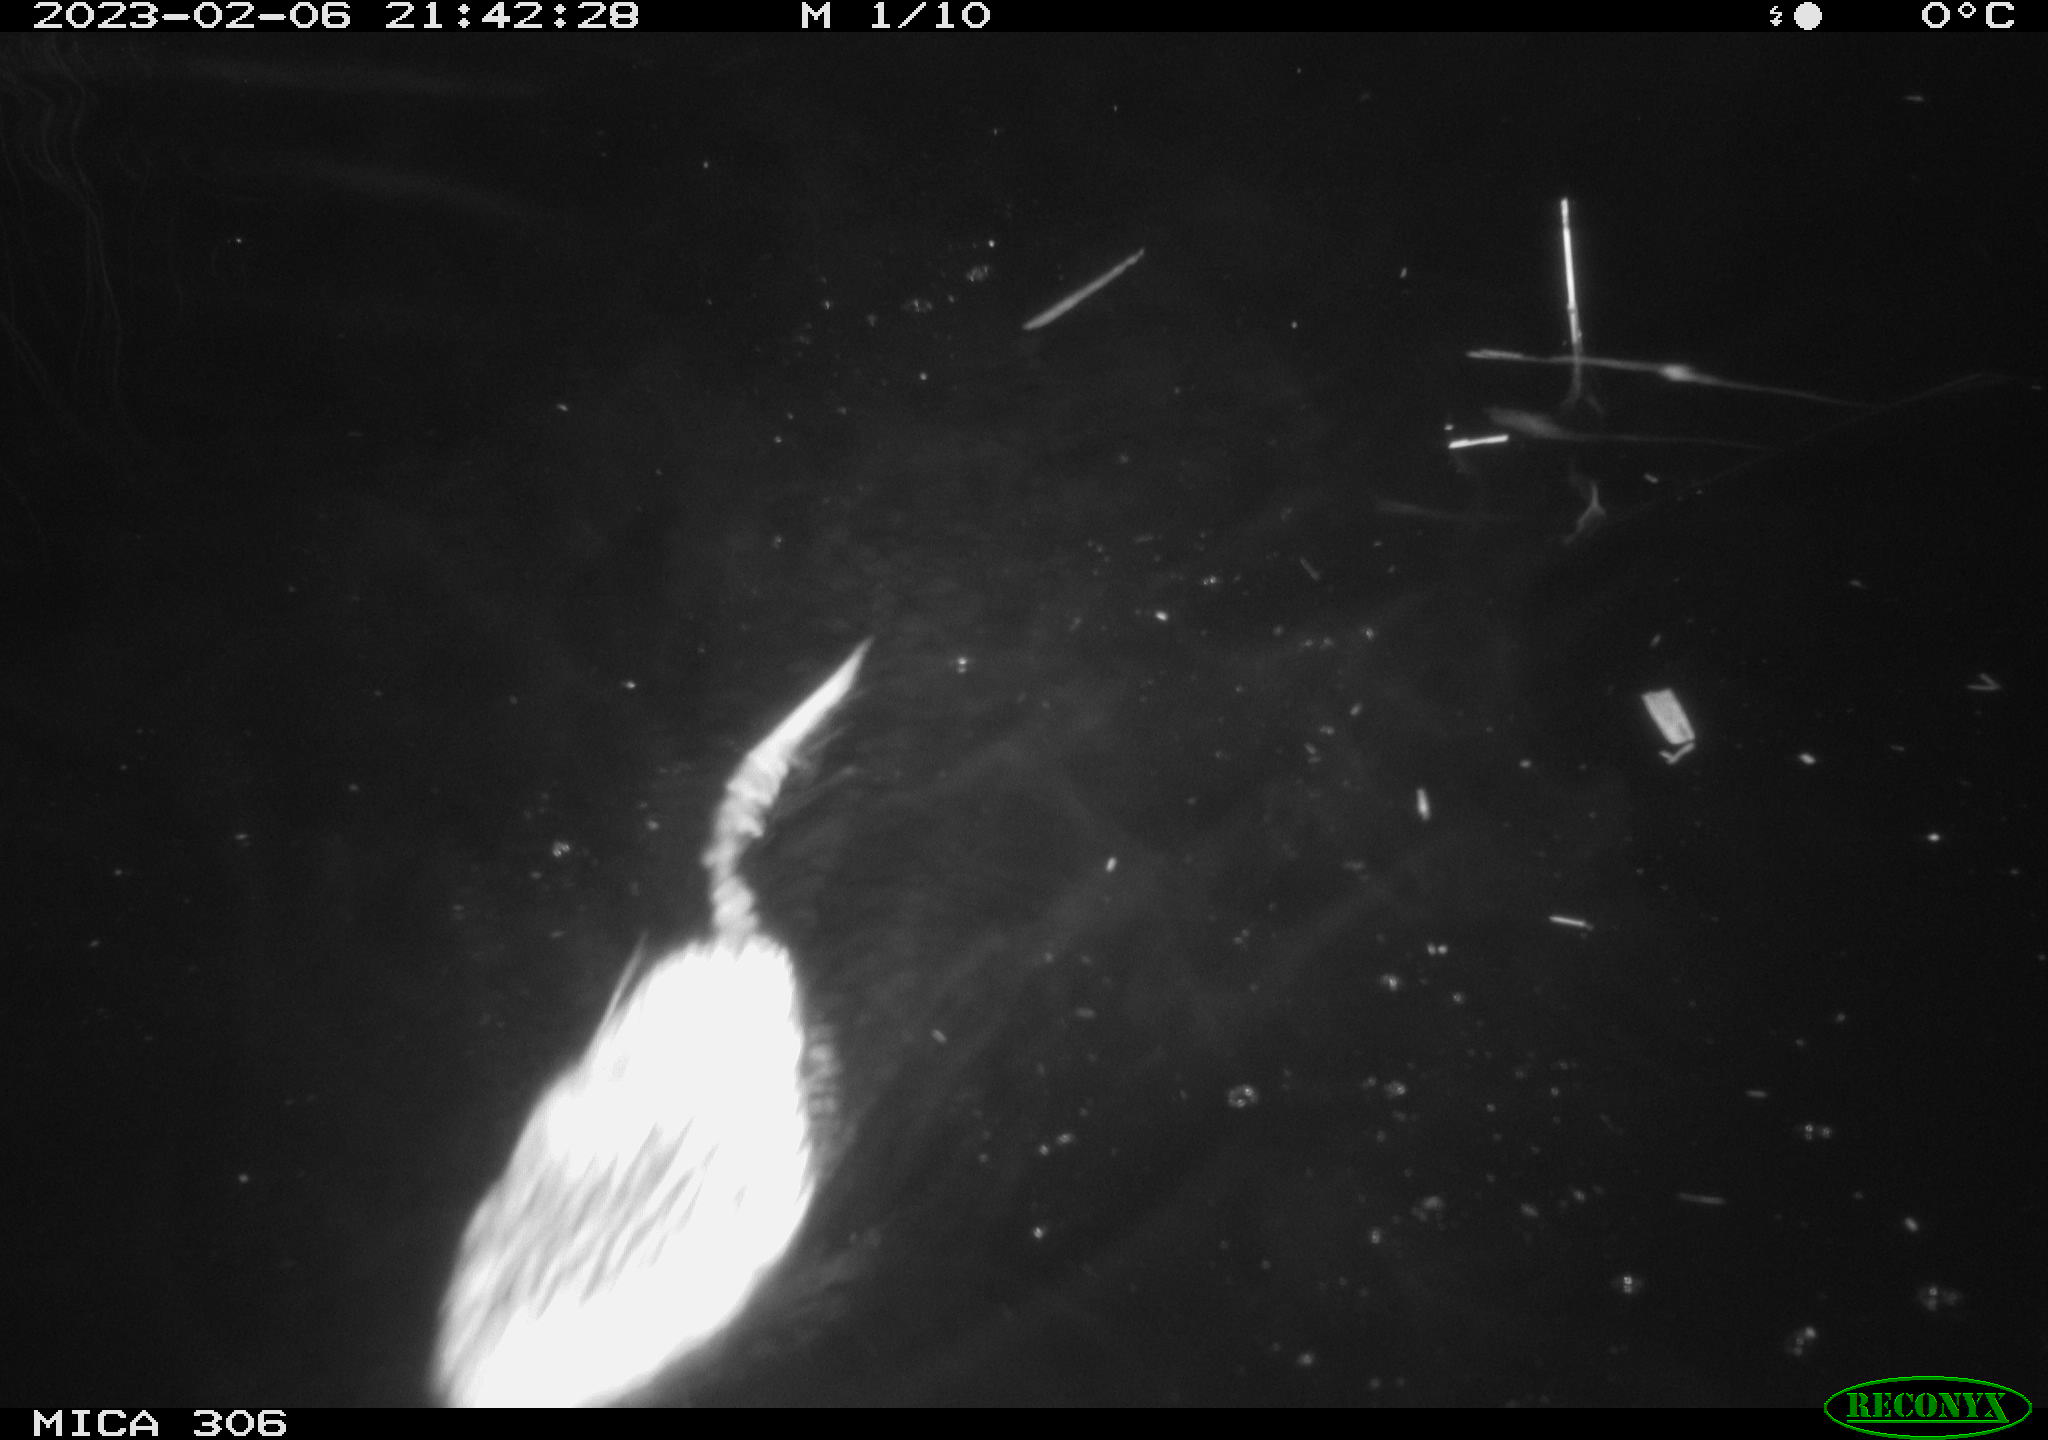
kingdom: Animalia
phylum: Chordata
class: Mammalia
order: Rodentia
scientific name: Rodentia
